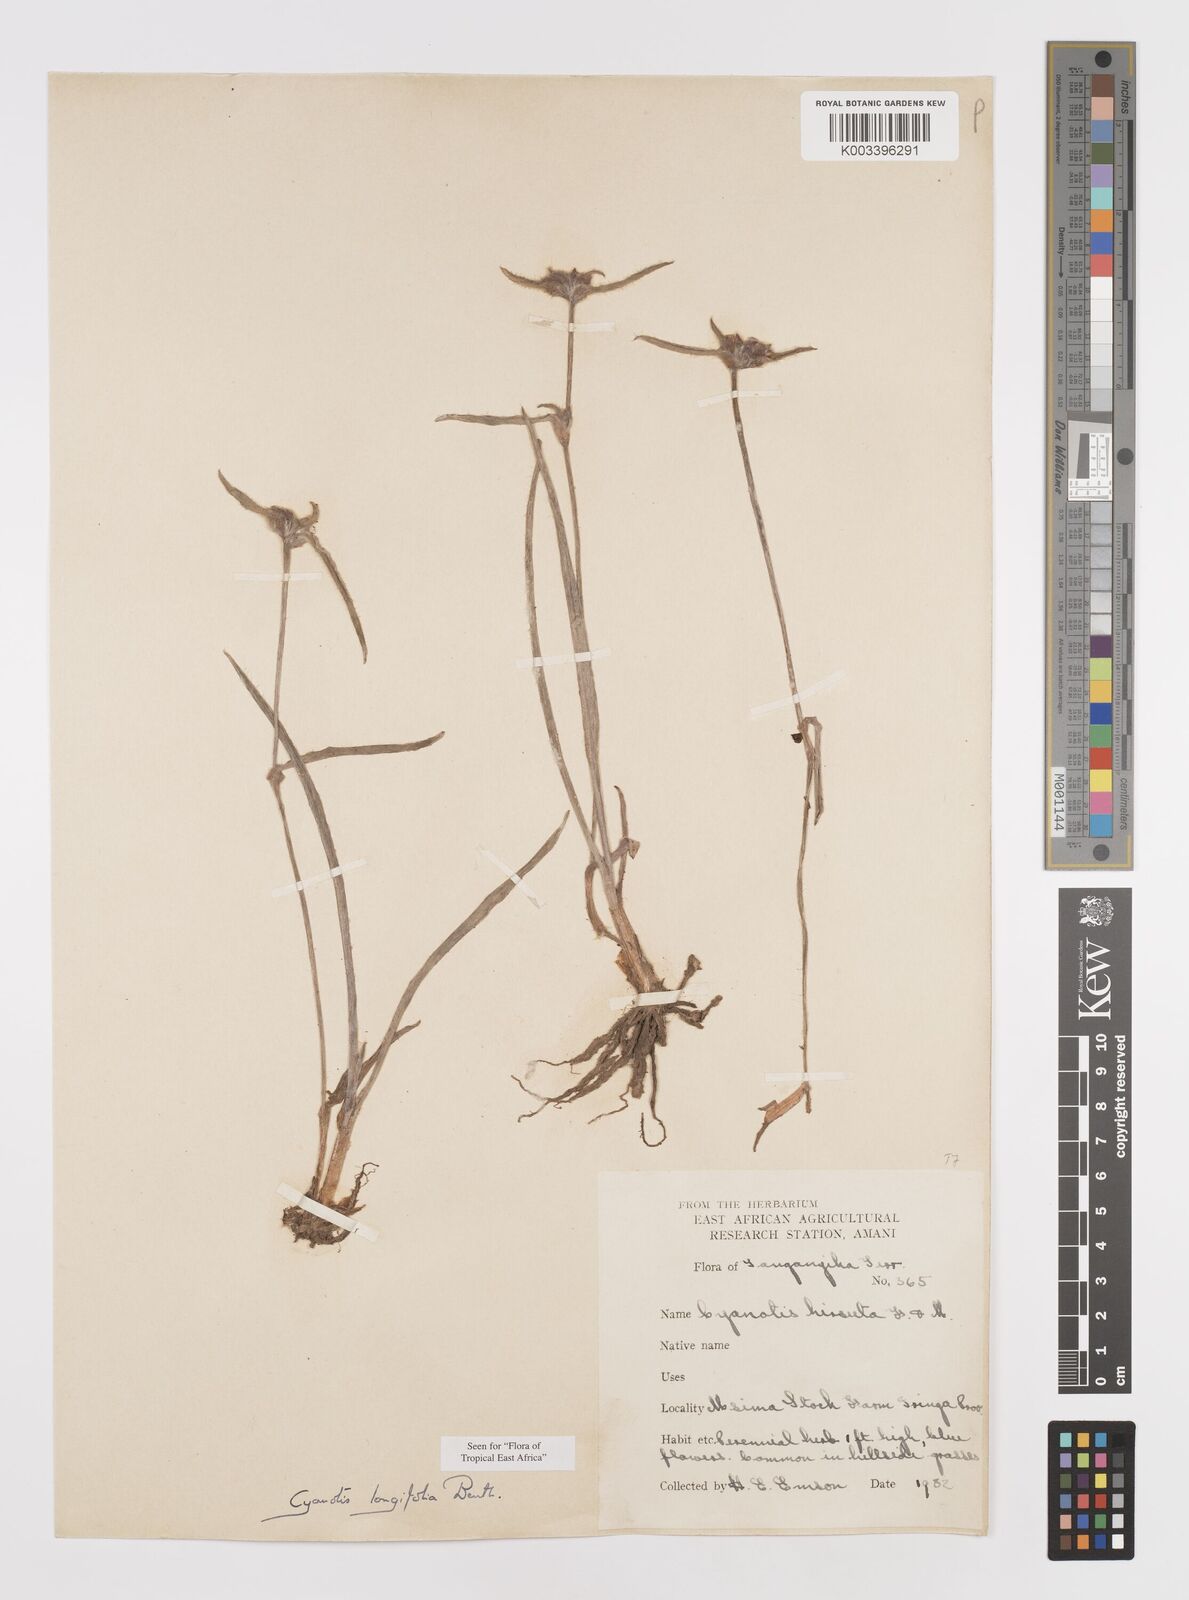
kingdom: Plantae
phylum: Tracheophyta
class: Liliopsida
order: Commelinales
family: Commelinaceae
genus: Cyanotis
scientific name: Cyanotis longifolia
